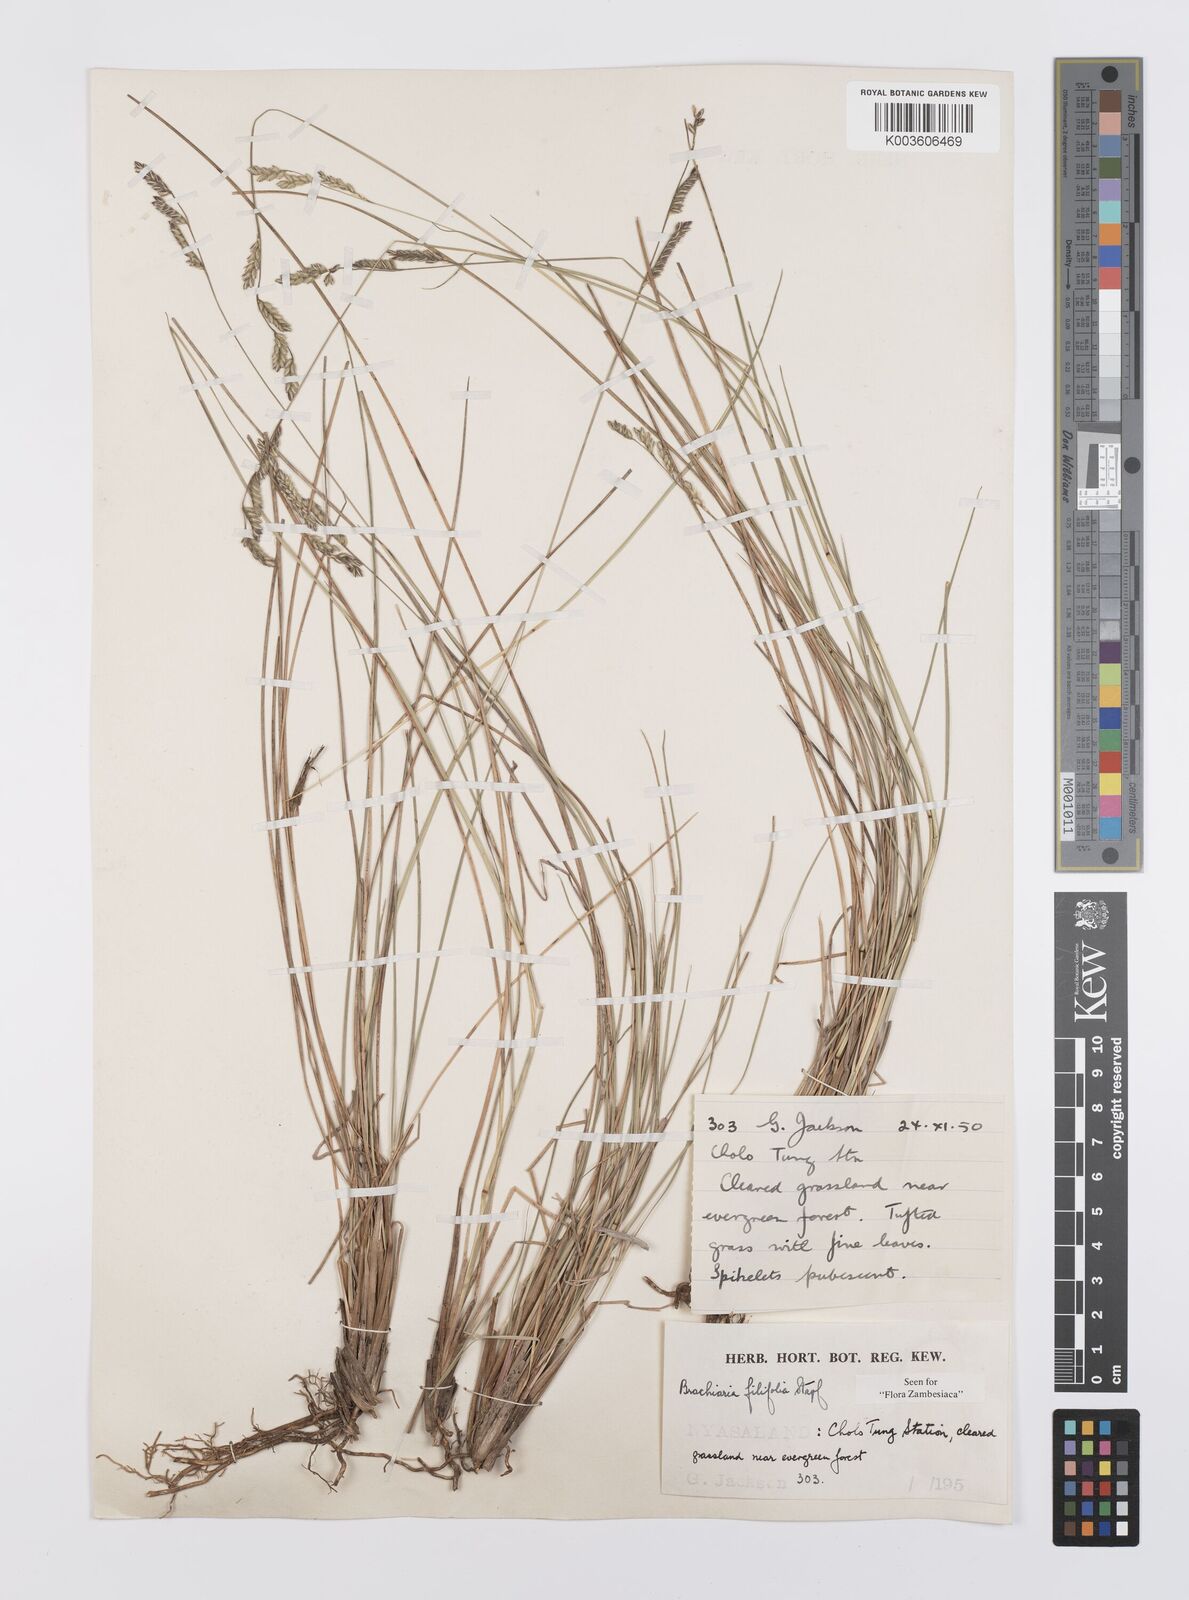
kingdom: Plantae
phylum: Tracheophyta
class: Liliopsida
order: Poales
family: Poaceae
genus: Urochloa
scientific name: Urochloa subulifolia
